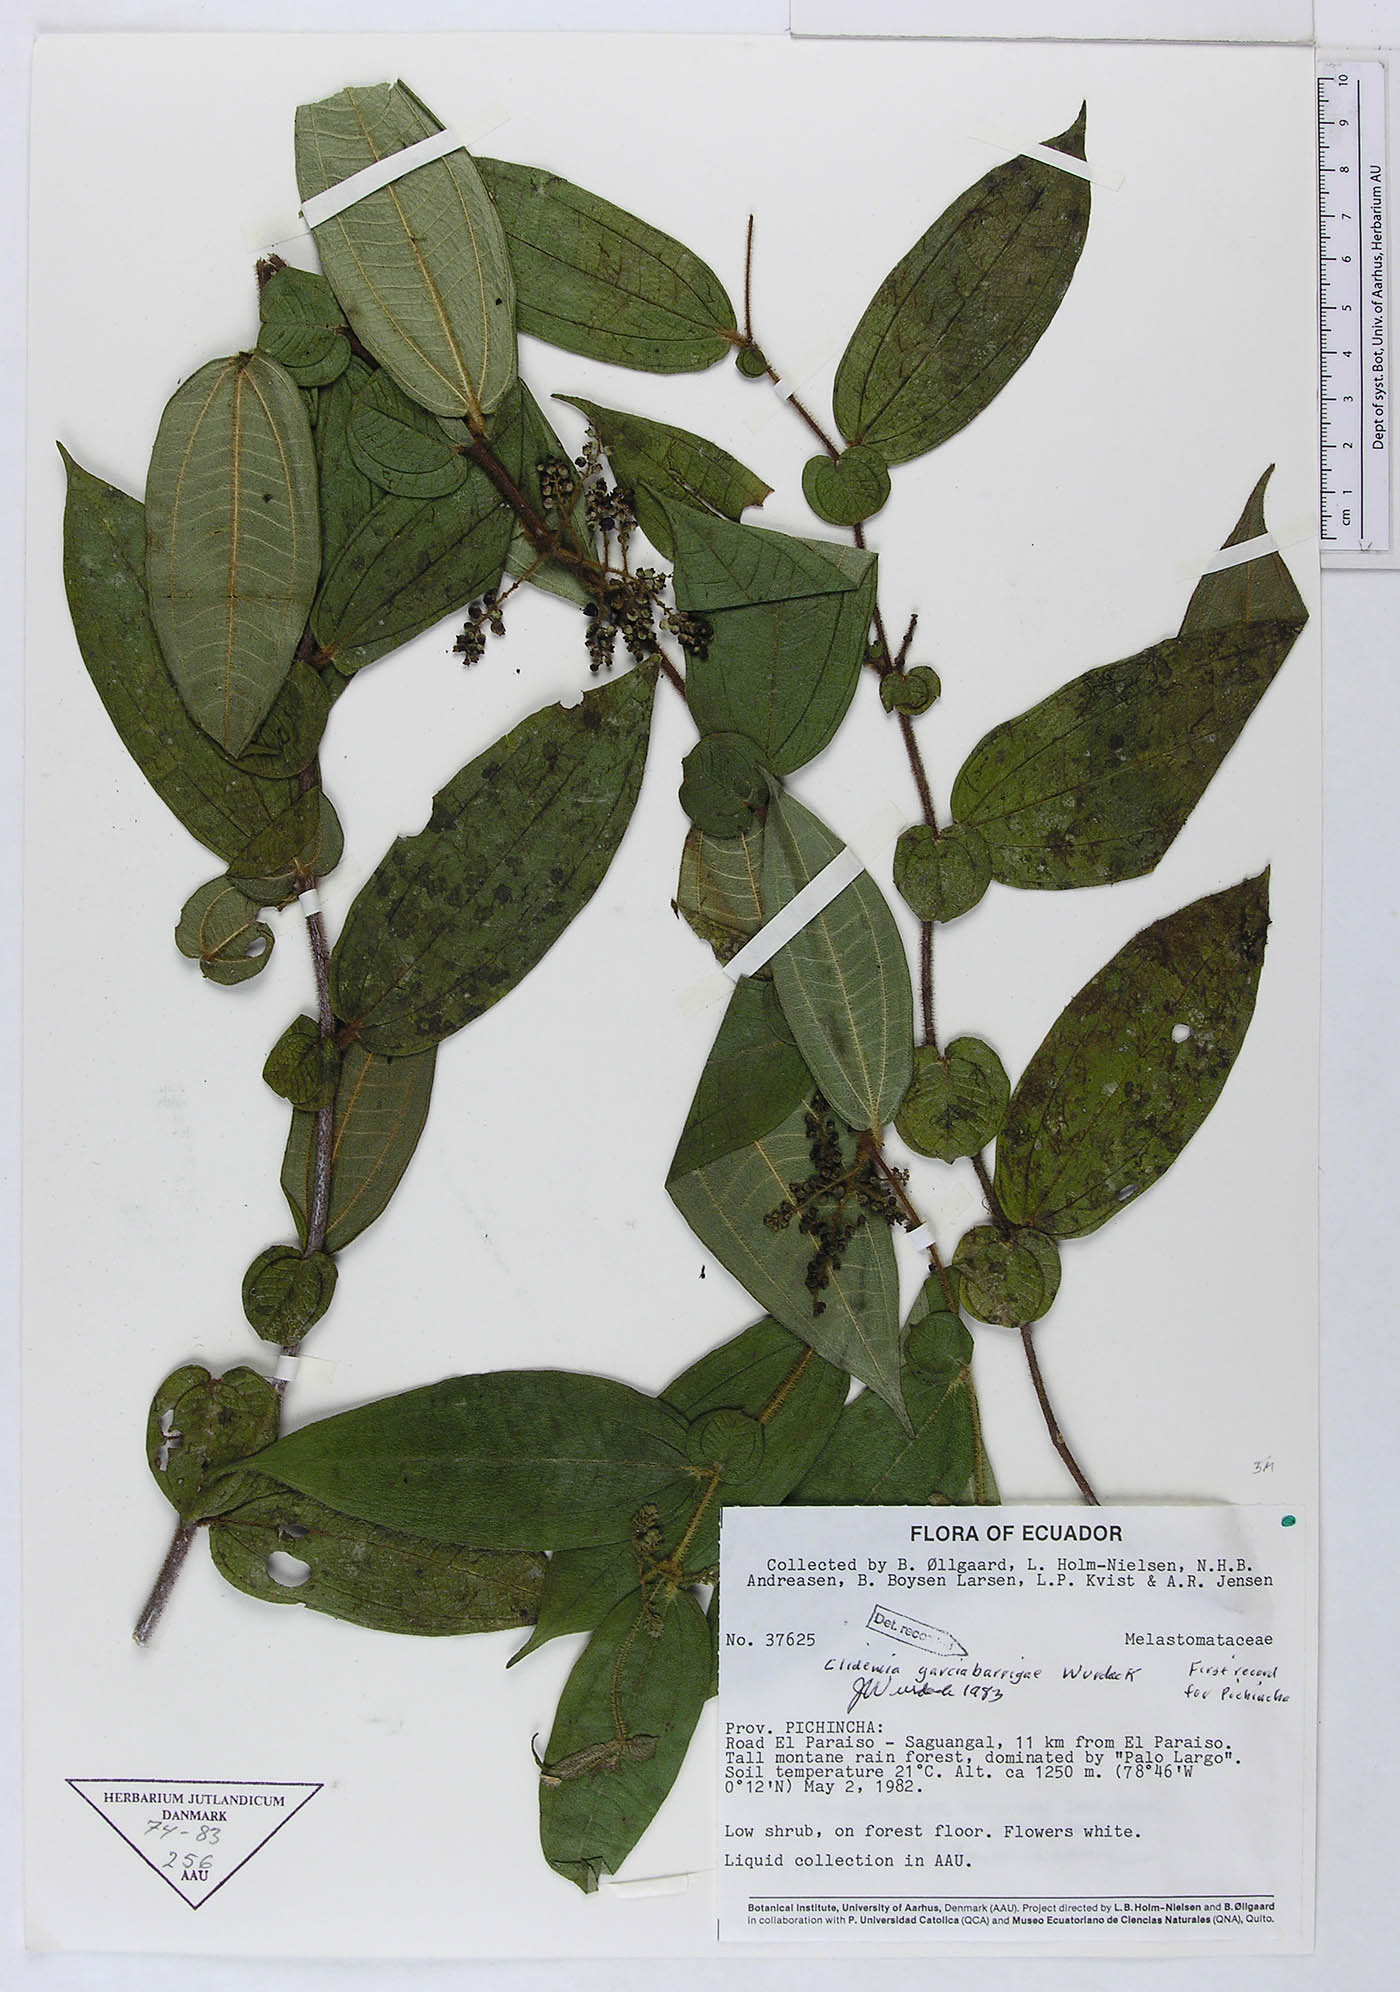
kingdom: Plantae
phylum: Tracheophyta
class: Magnoliopsida
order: Myrtales
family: Melastomataceae
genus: Miconia
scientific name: Miconia garcia-barrigae
